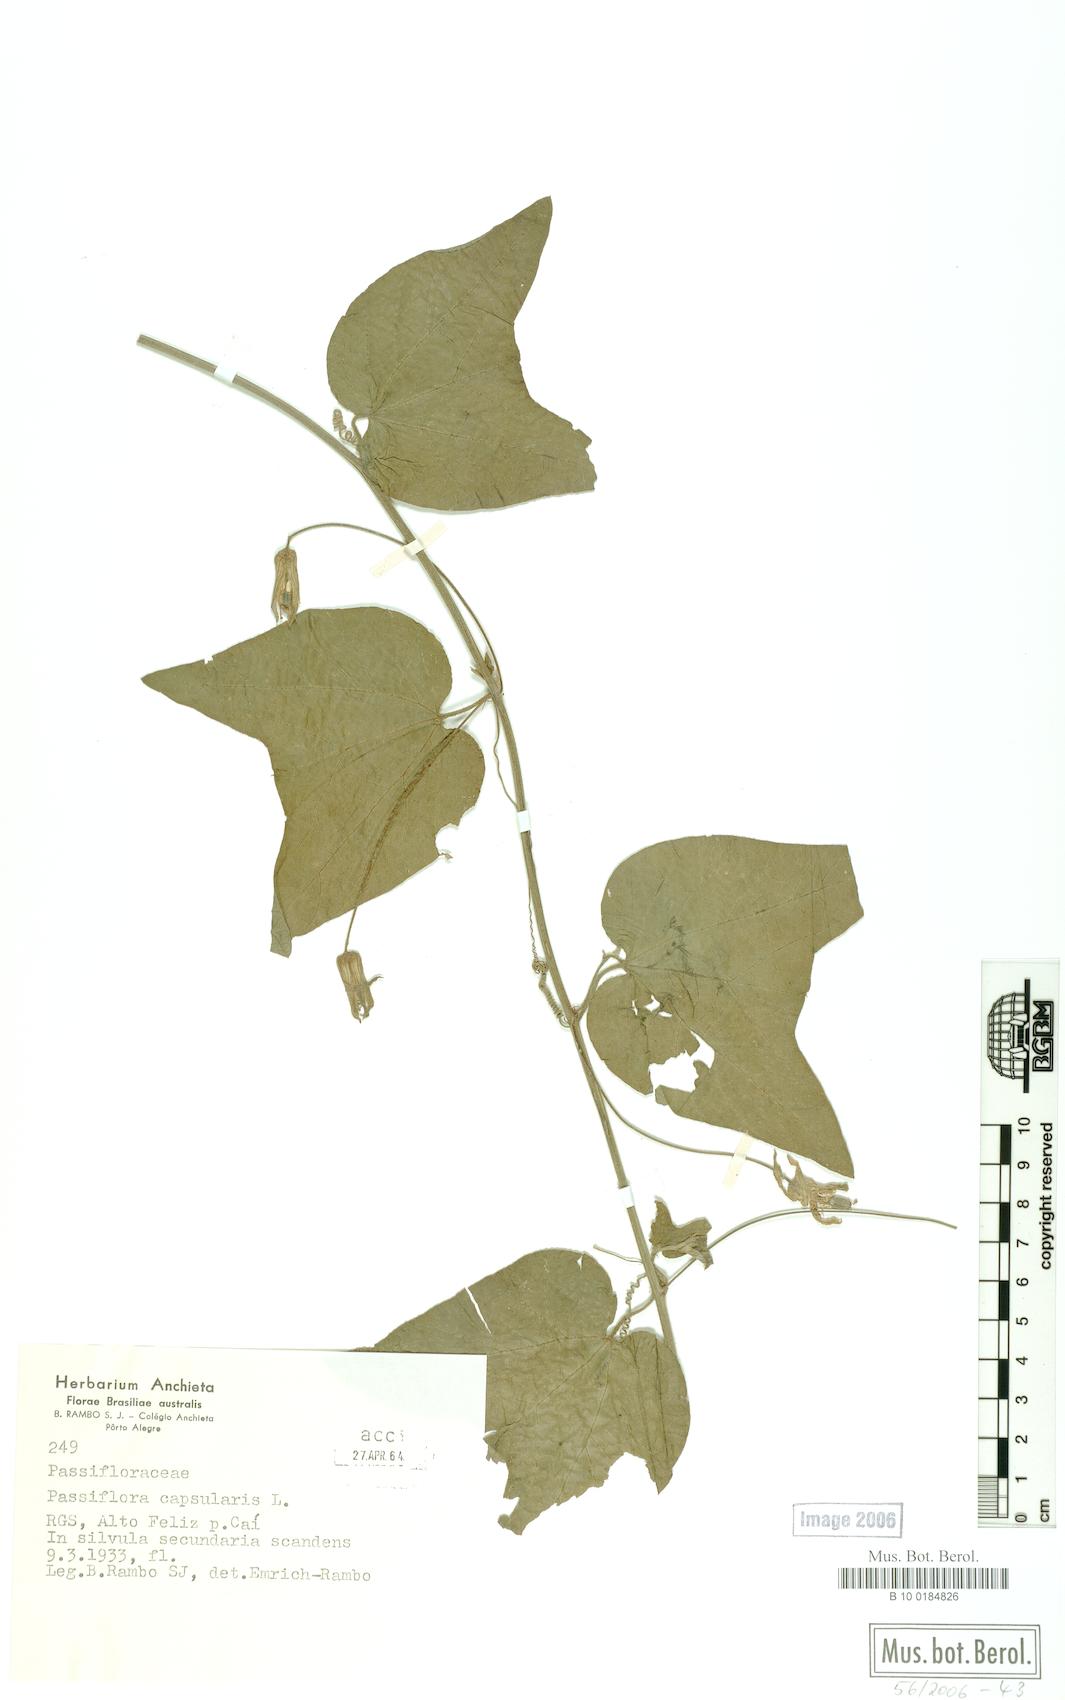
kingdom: Plantae
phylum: Tracheophyta
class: Magnoliopsida
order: Malpighiales
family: Passifloraceae
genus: Passiflora
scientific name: Passiflora capsularis
